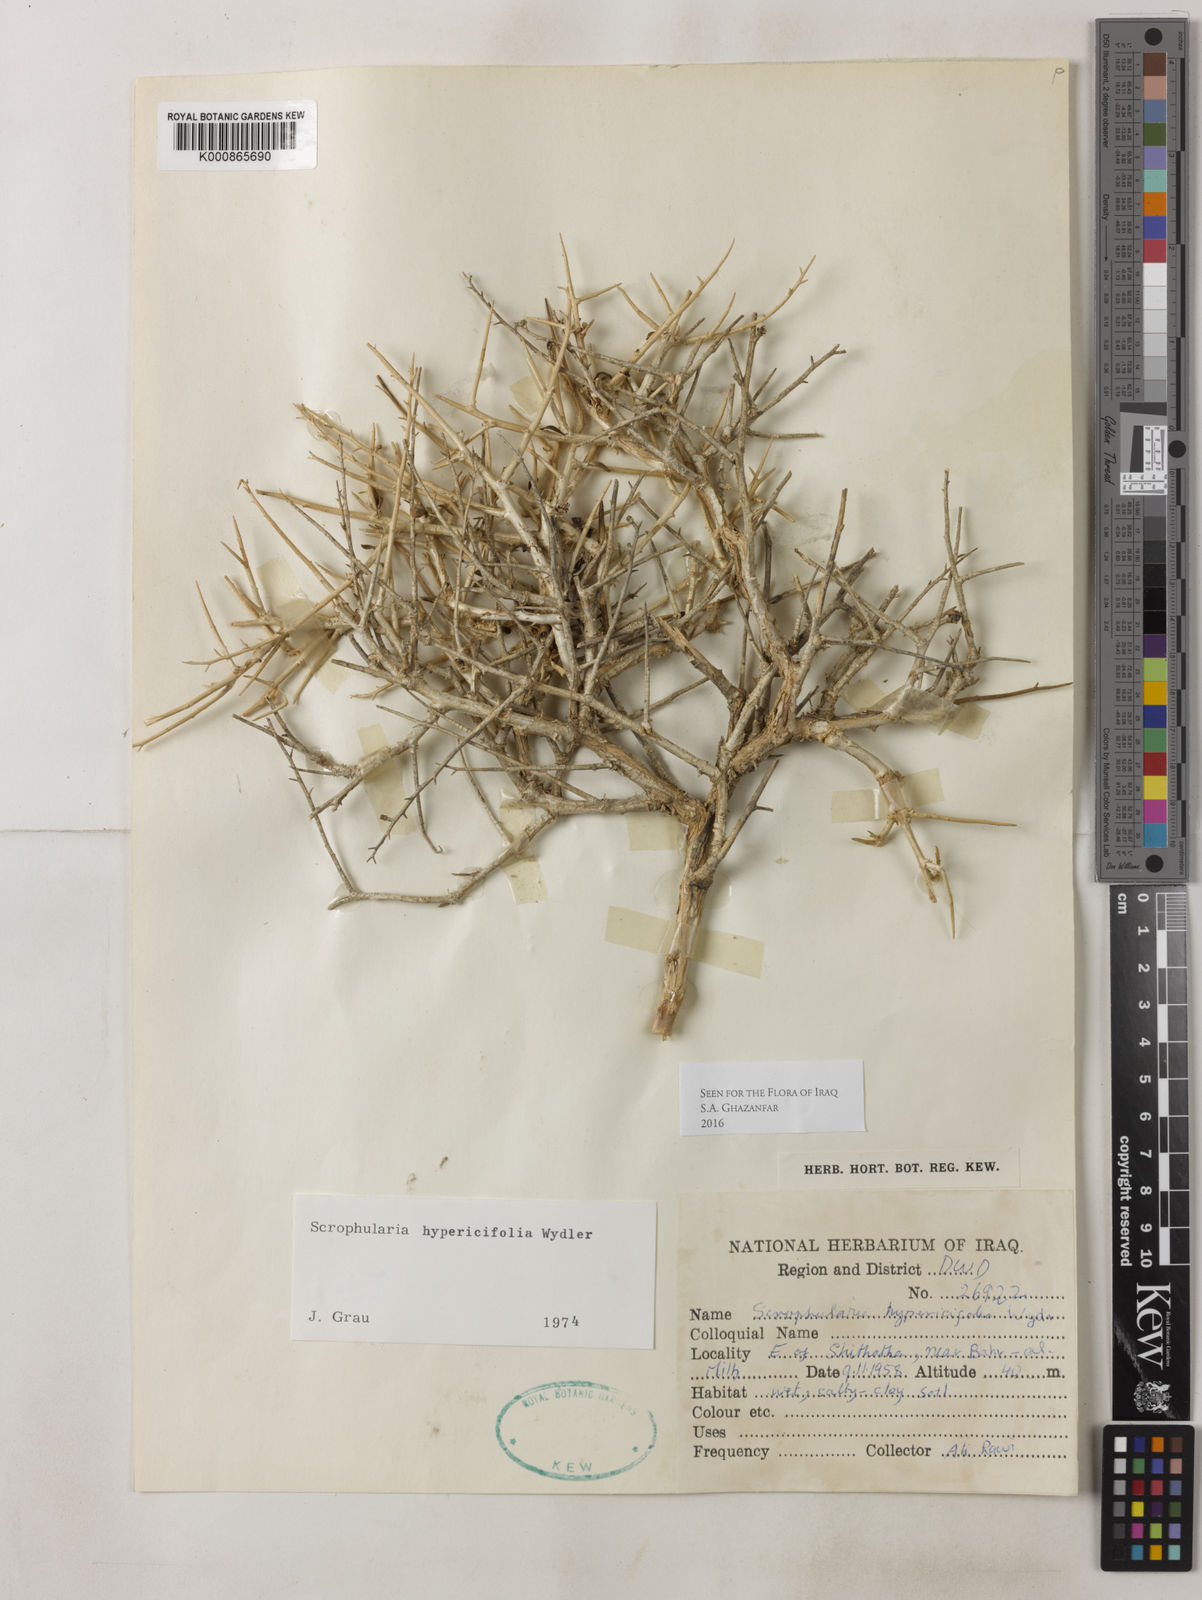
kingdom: Plantae
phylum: Tracheophyta
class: Magnoliopsida
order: Lamiales
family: Scrophulariaceae
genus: Scrophularia
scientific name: Scrophularia hypericifolia
